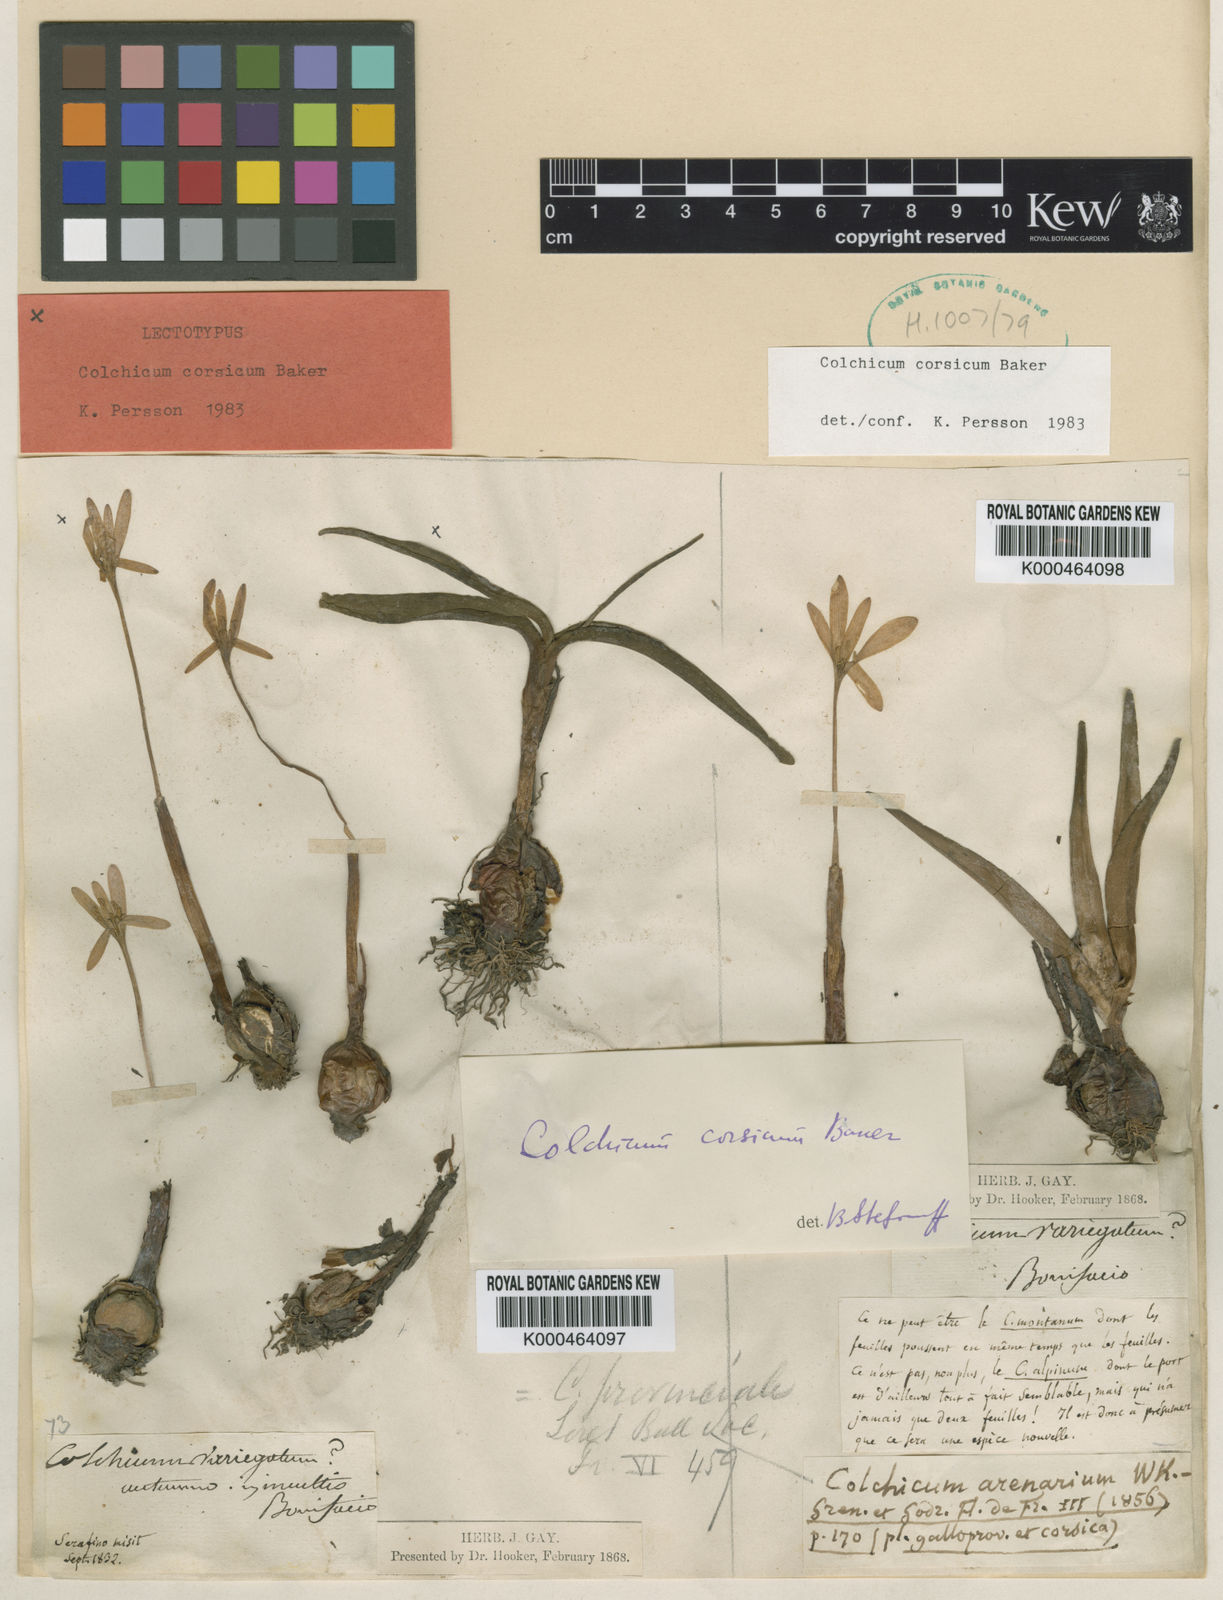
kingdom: Plantae
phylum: Tracheophyta
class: Liliopsida
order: Liliales
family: Colchicaceae
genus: Colchicum
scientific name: Colchicum corsicum
